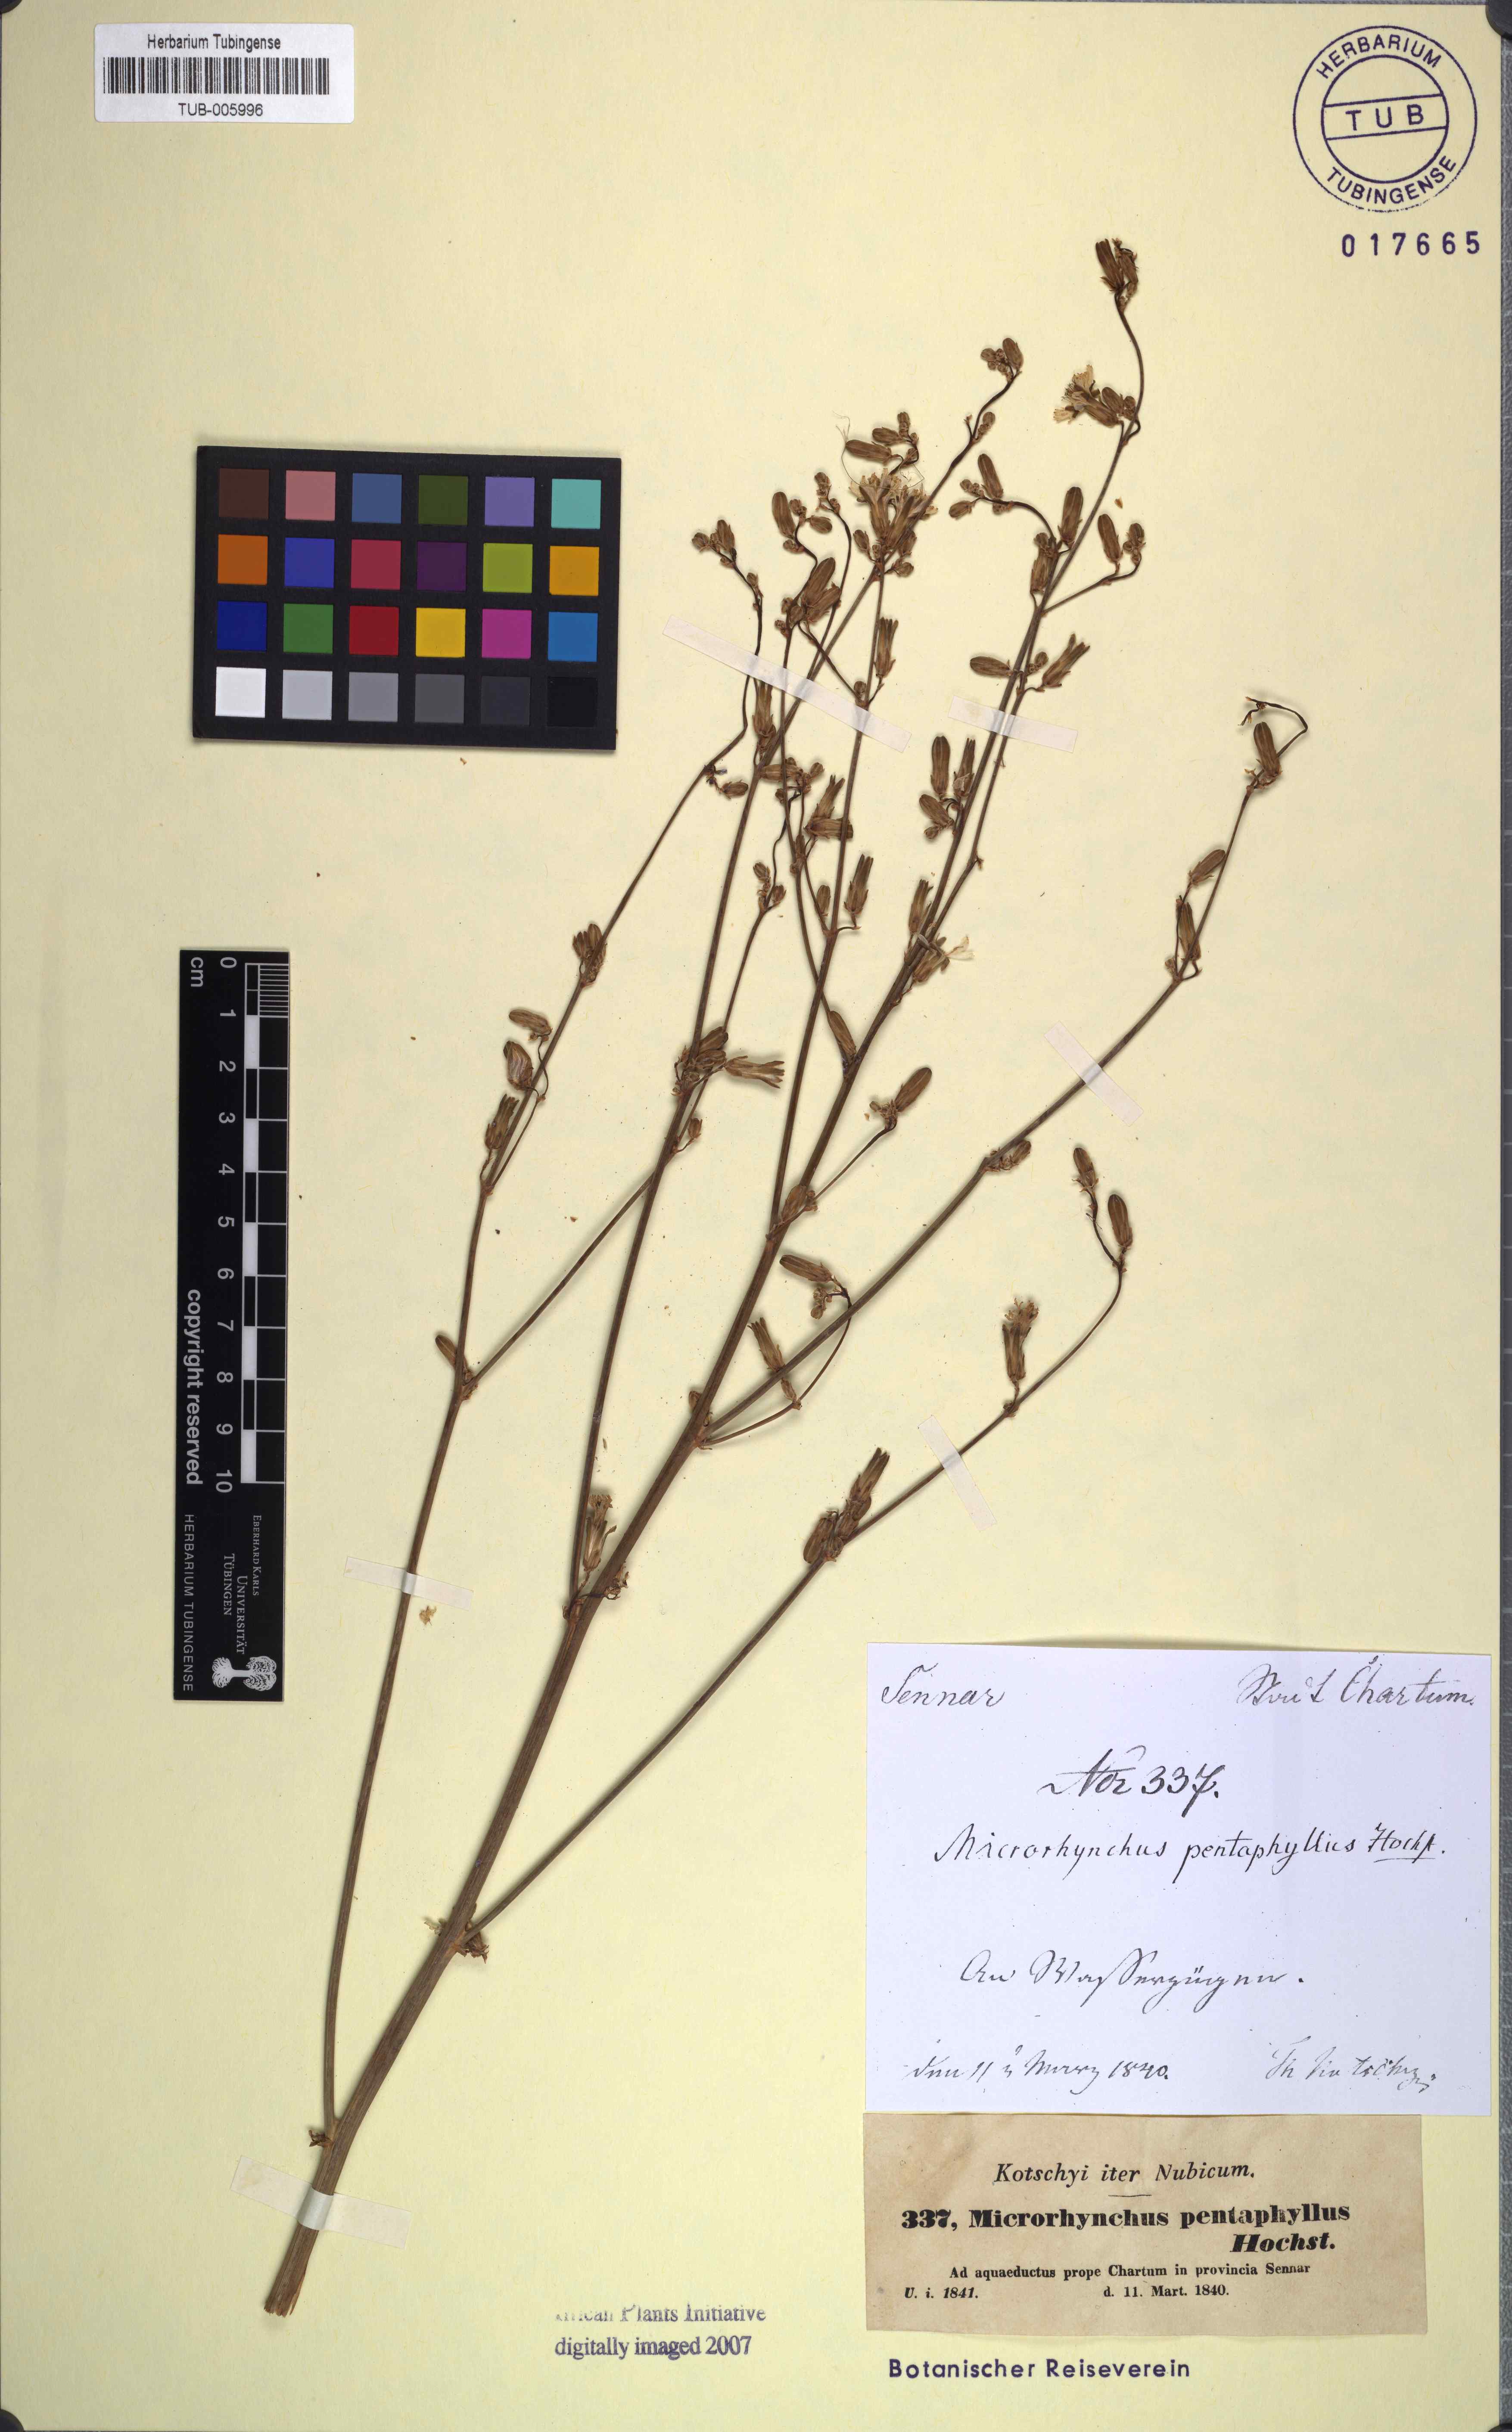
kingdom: Plantae
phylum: Tracheophyta
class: Magnoliopsida
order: Asterales
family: Asteraceae
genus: Launaea
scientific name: Launaea taraxacifolia
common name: African-lettuce
